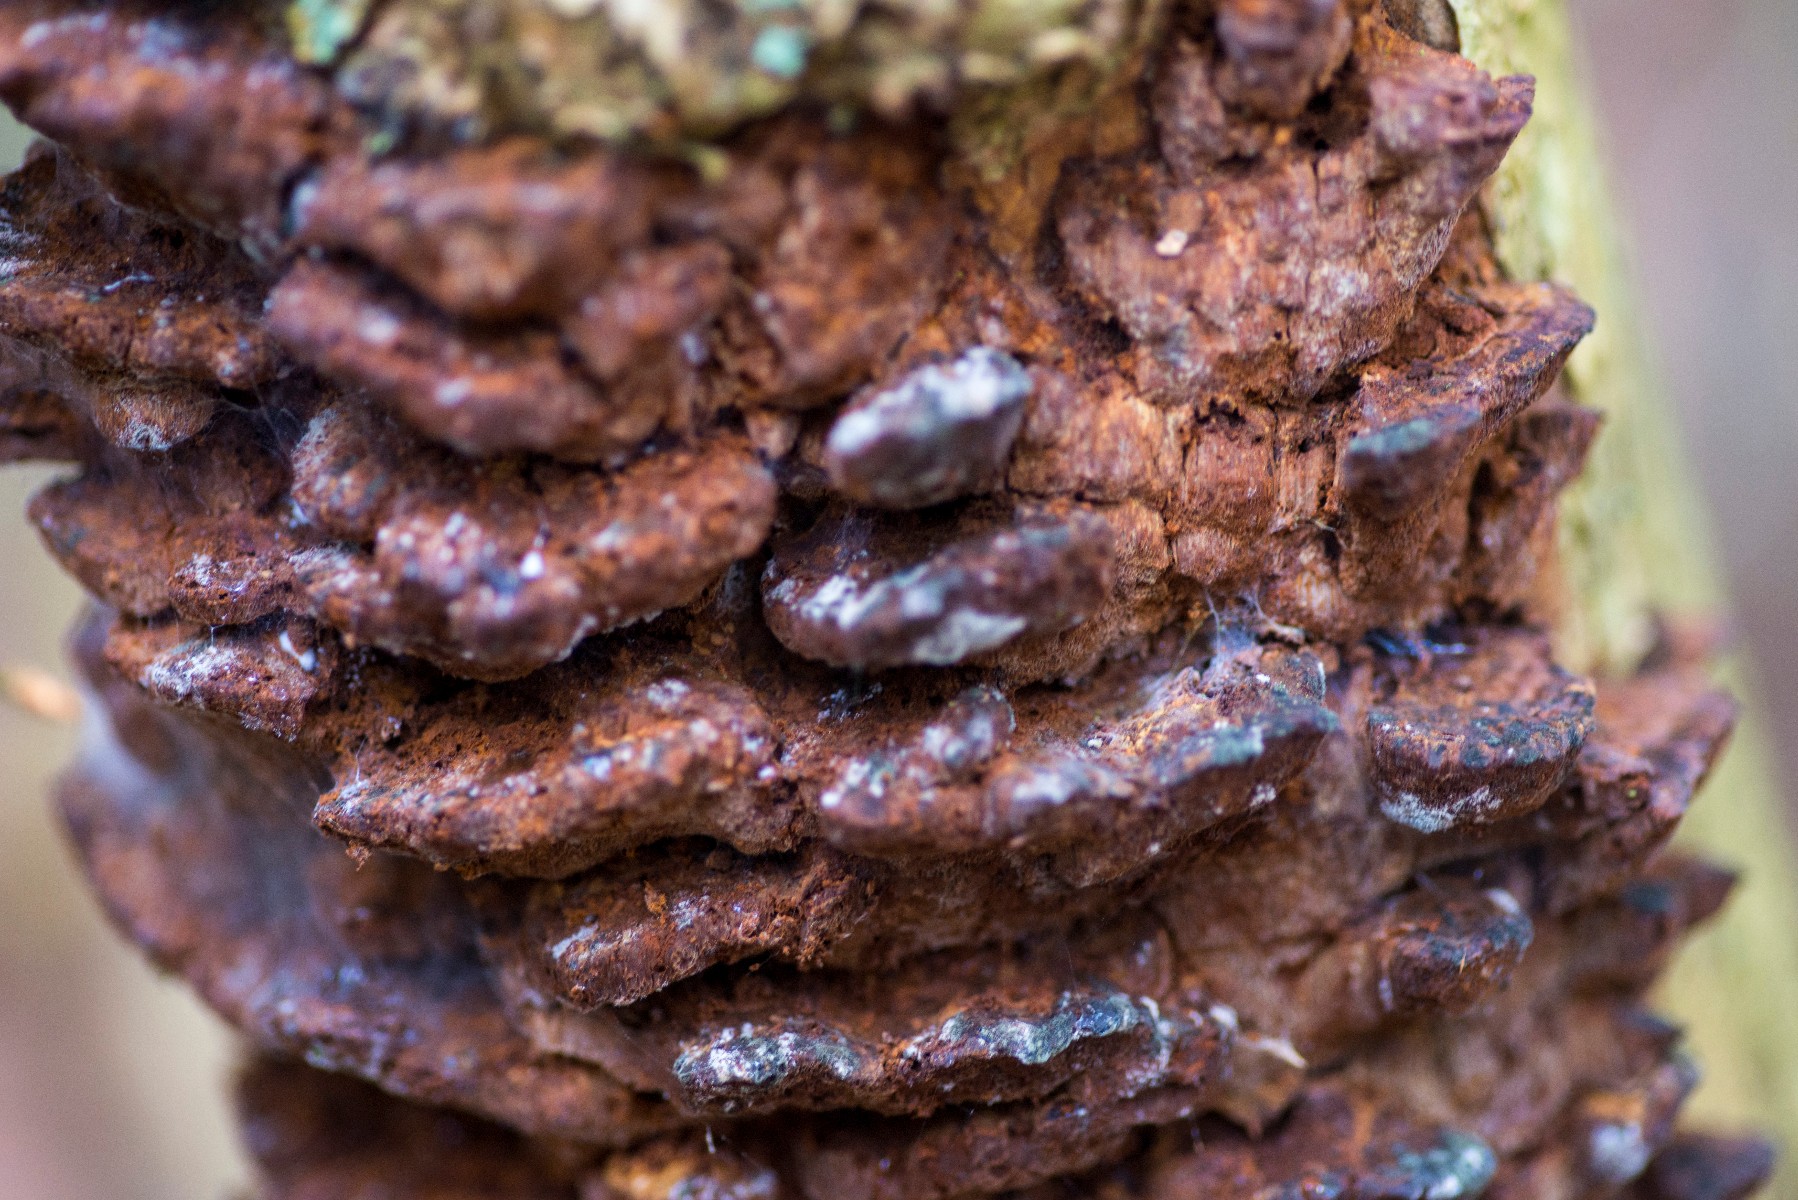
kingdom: Fungi
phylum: Basidiomycota
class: Agaricomycetes
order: Hymenochaetales
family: Hymenochaetaceae
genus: Xanthoporia
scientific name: Xanthoporia radiata
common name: elle-spejlporesvamp
